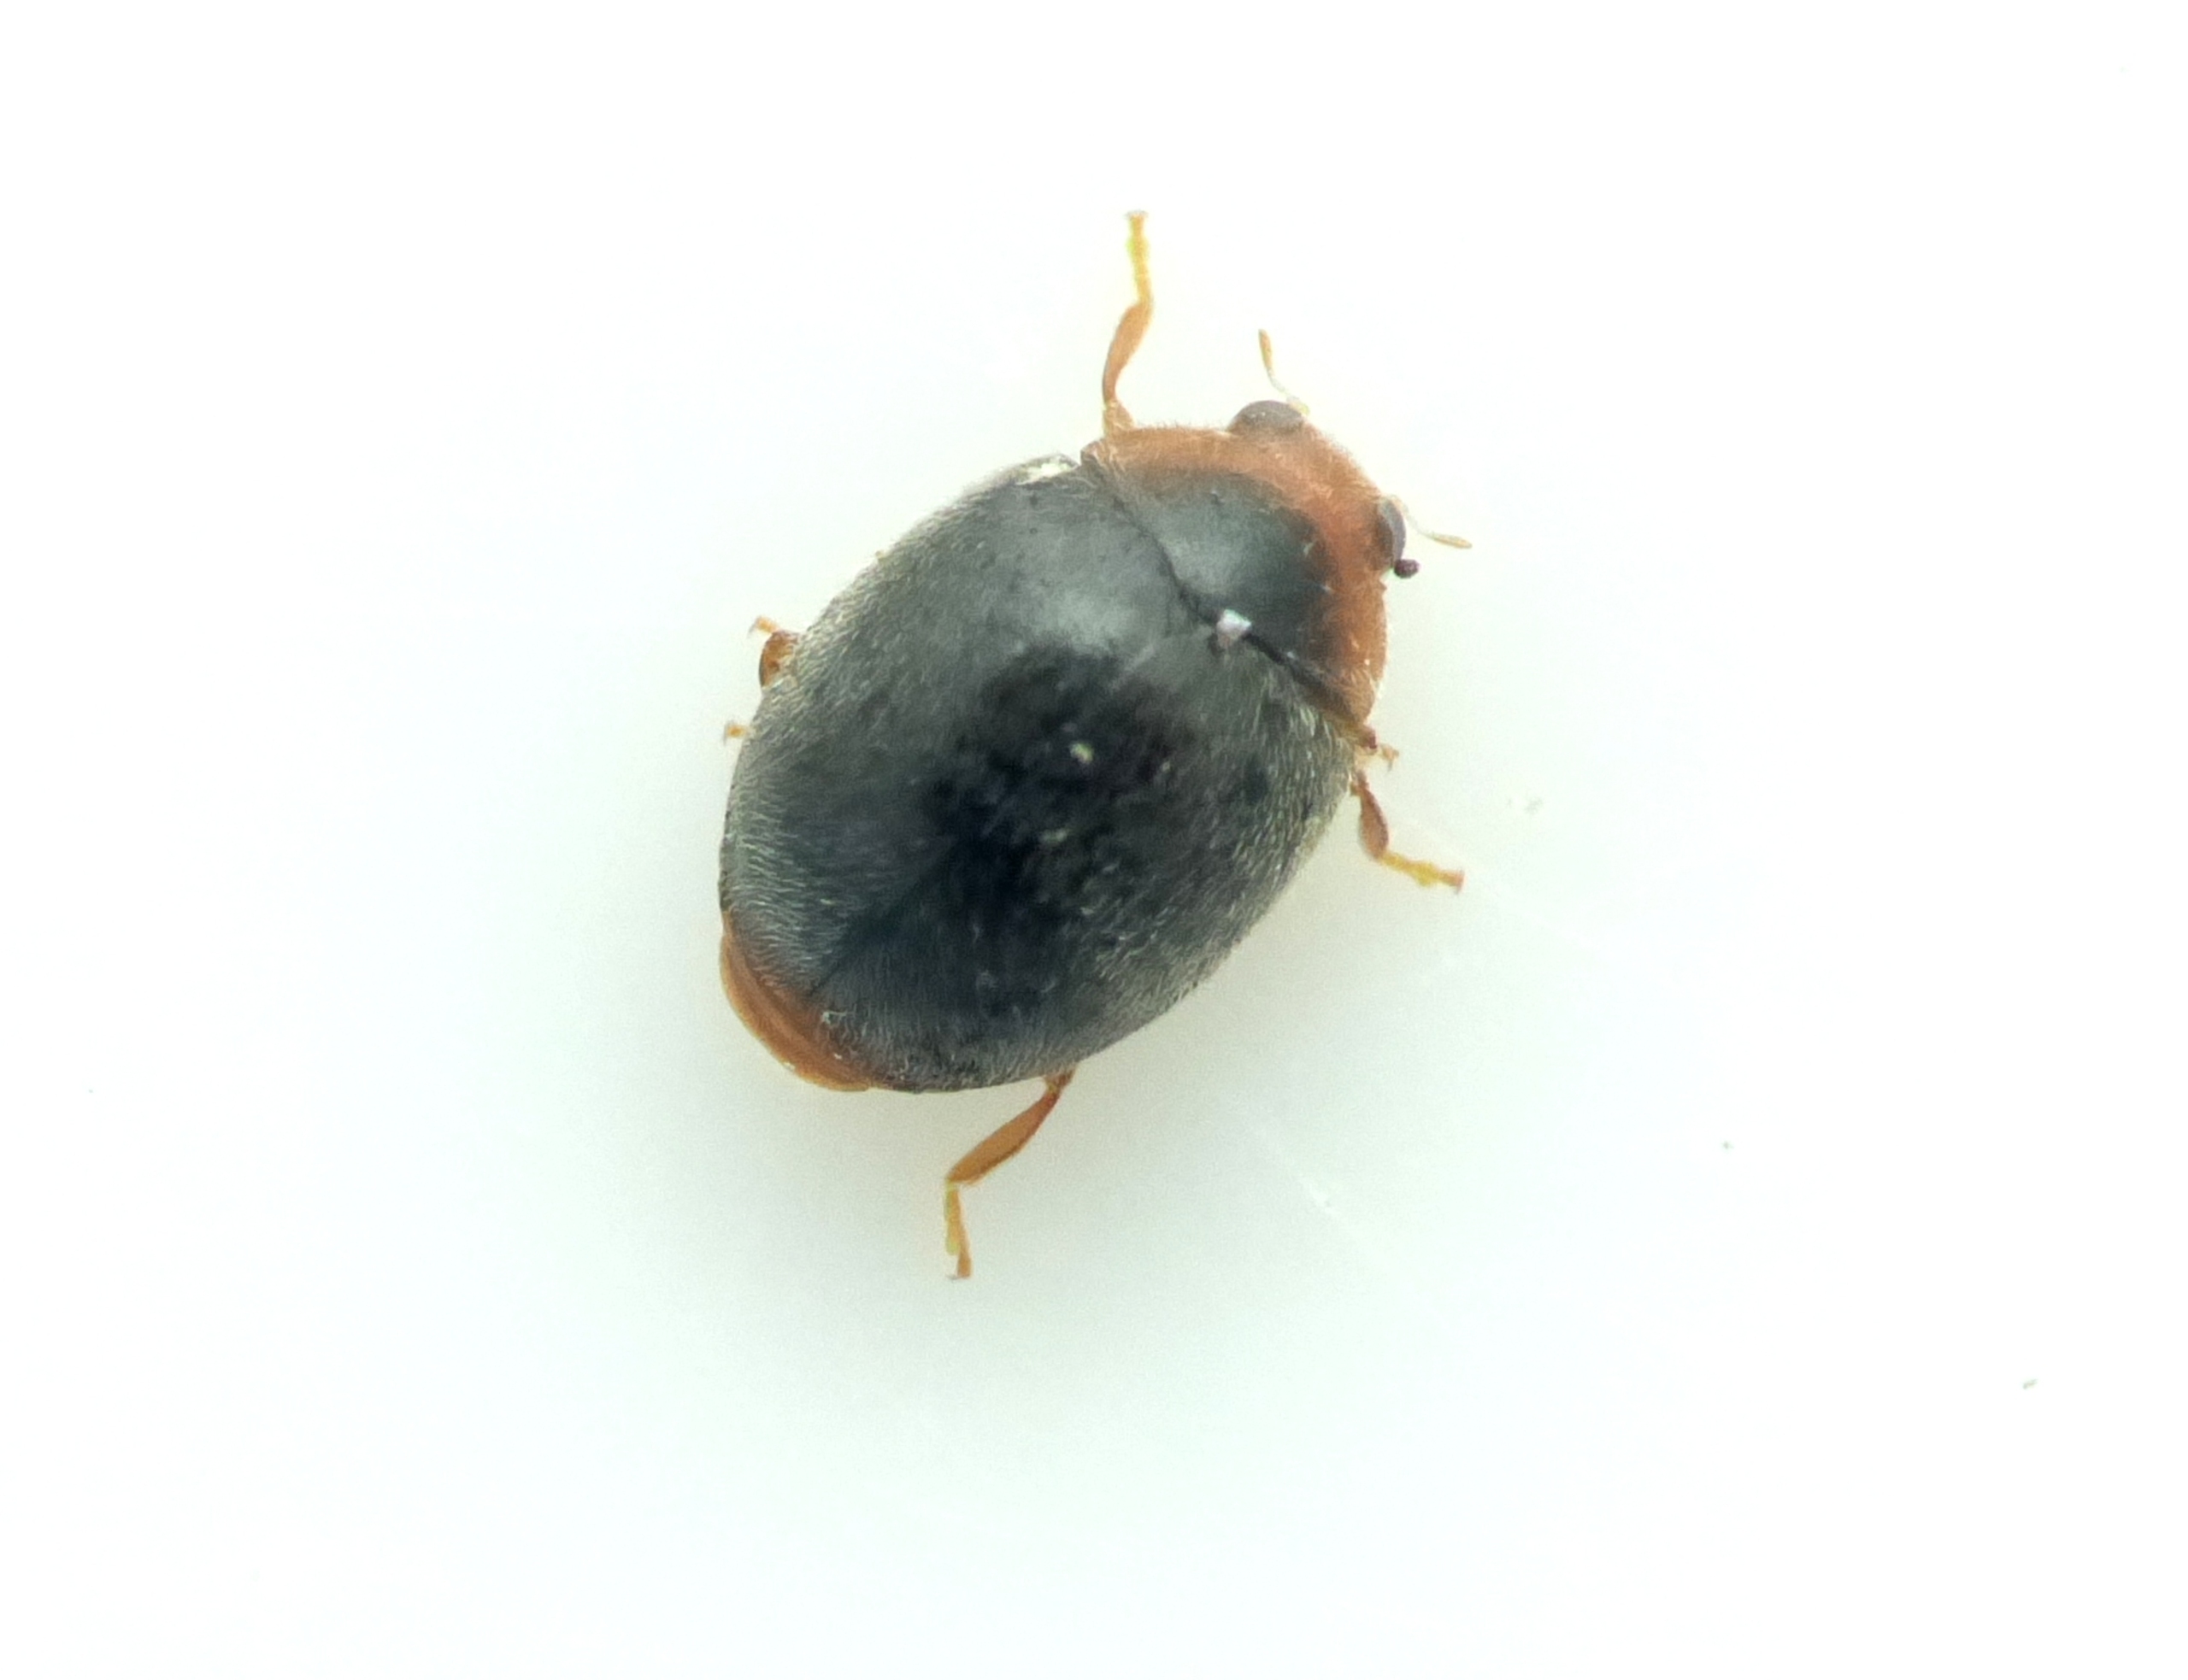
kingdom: Animalia
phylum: Arthropoda
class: Insecta
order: Coleoptera
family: Coccinellidae
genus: Scymnus
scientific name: Scymnus auritus
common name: Egedværgmariehøne
